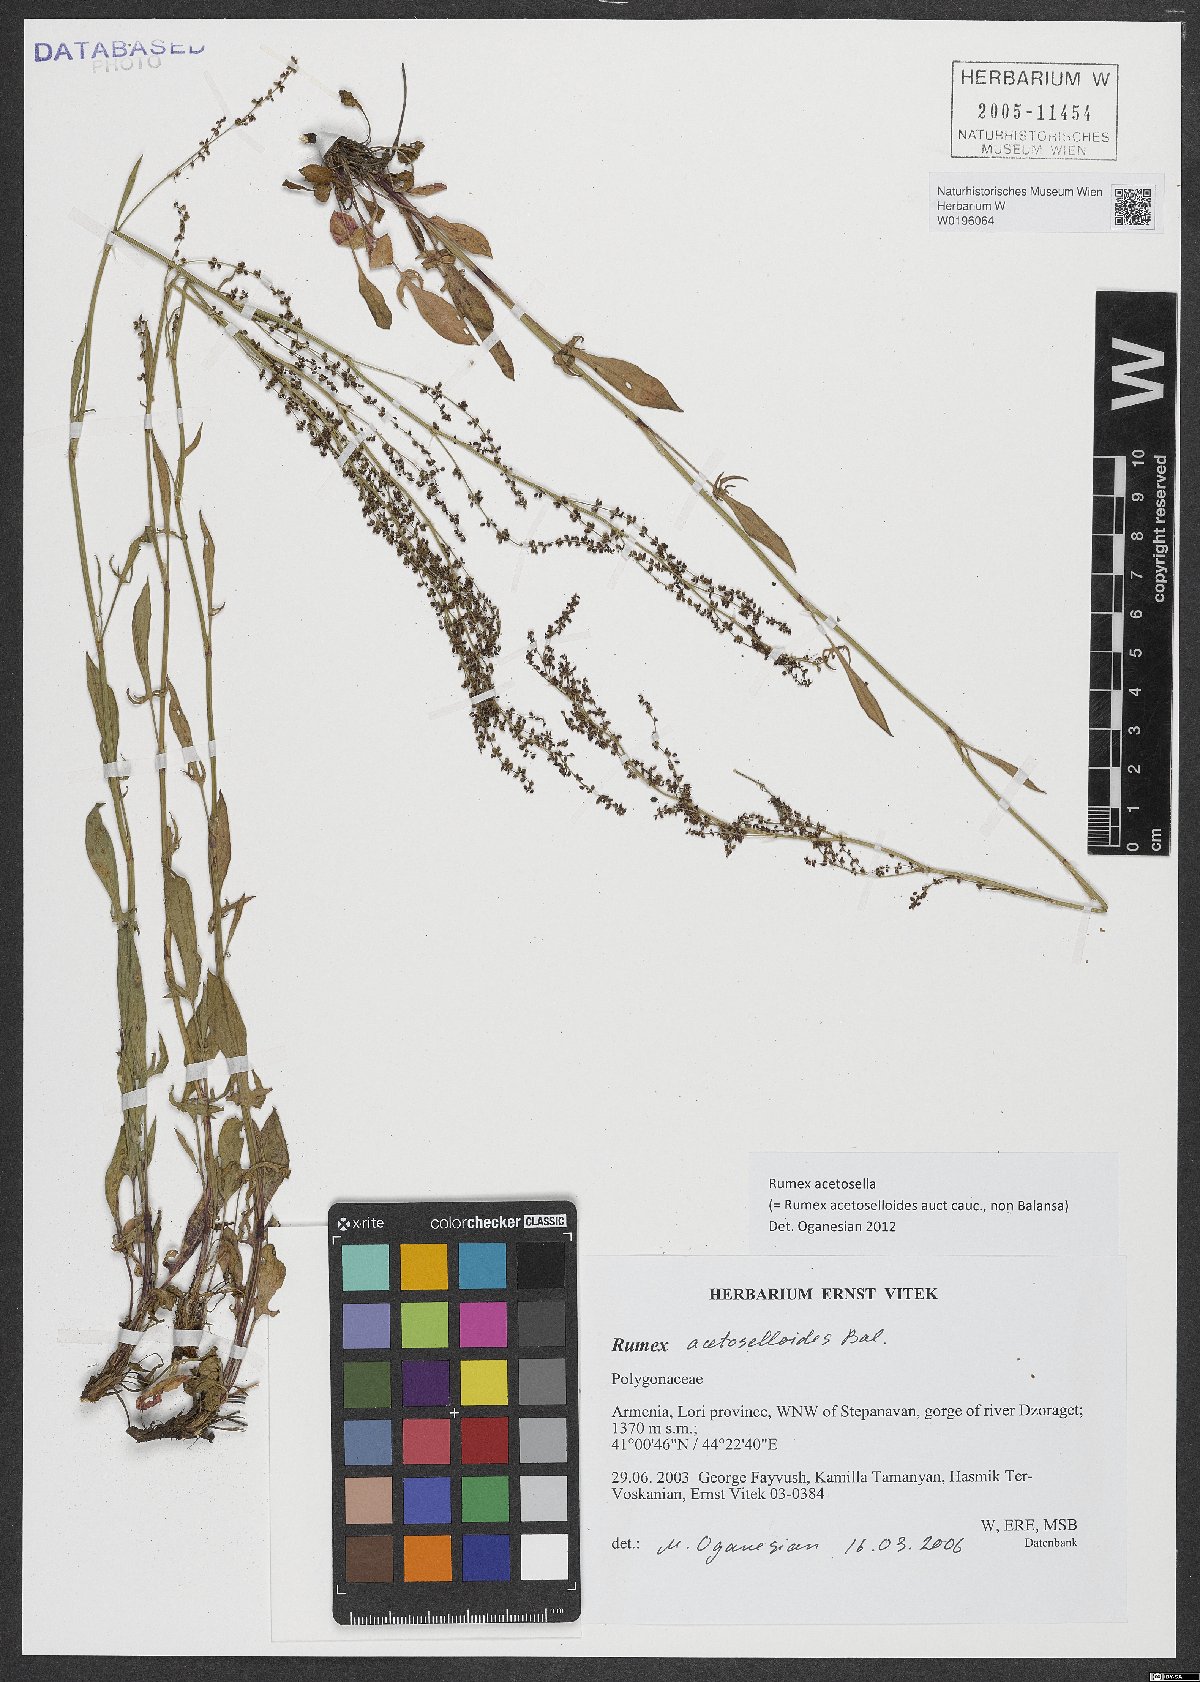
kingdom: Plantae
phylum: Tracheophyta
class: Magnoliopsida
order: Caryophyllales
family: Polygonaceae
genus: Rumex
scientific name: Rumex acetosella
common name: Common sheep sorrel
